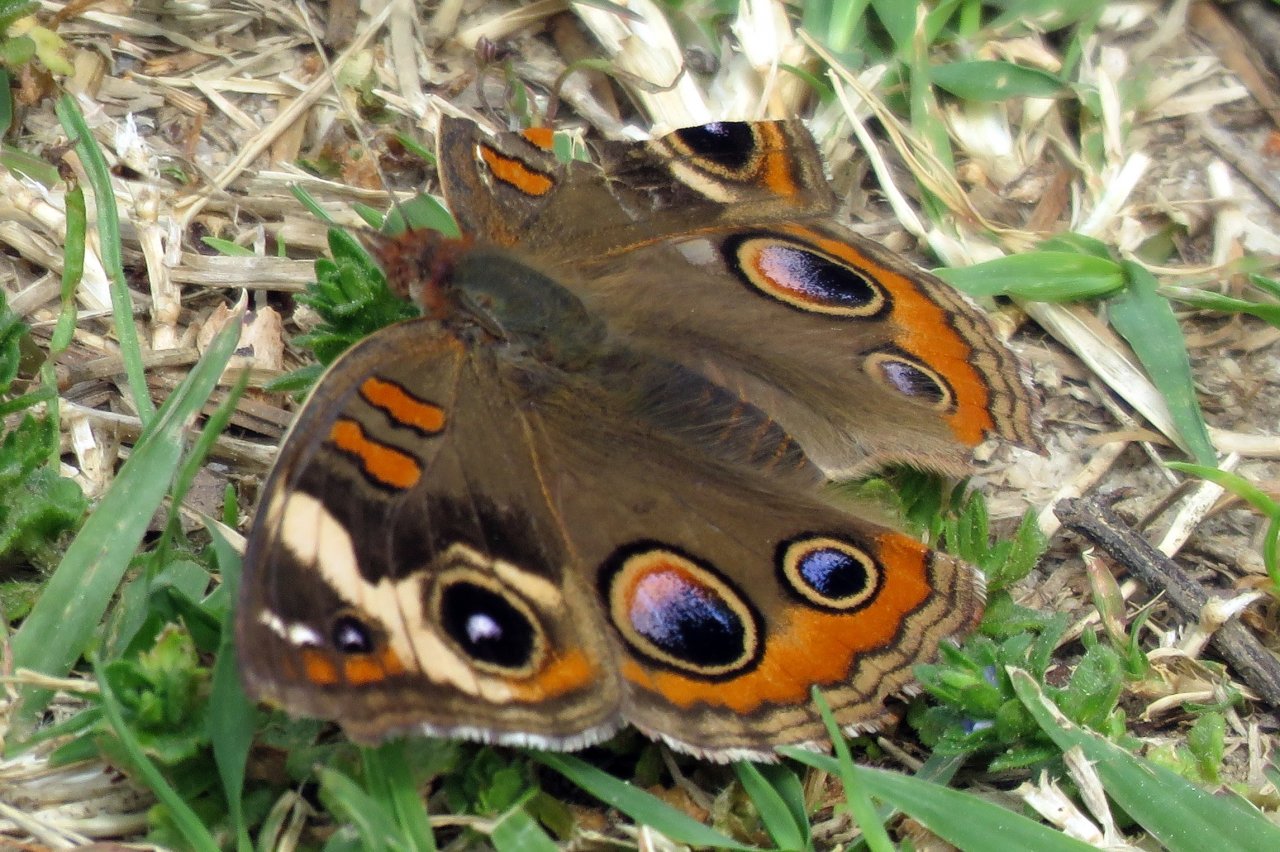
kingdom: Animalia
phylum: Arthropoda
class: Insecta
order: Lepidoptera
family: Nymphalidae
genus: Junonia
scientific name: Junonia coenia
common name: Common Buckeye
